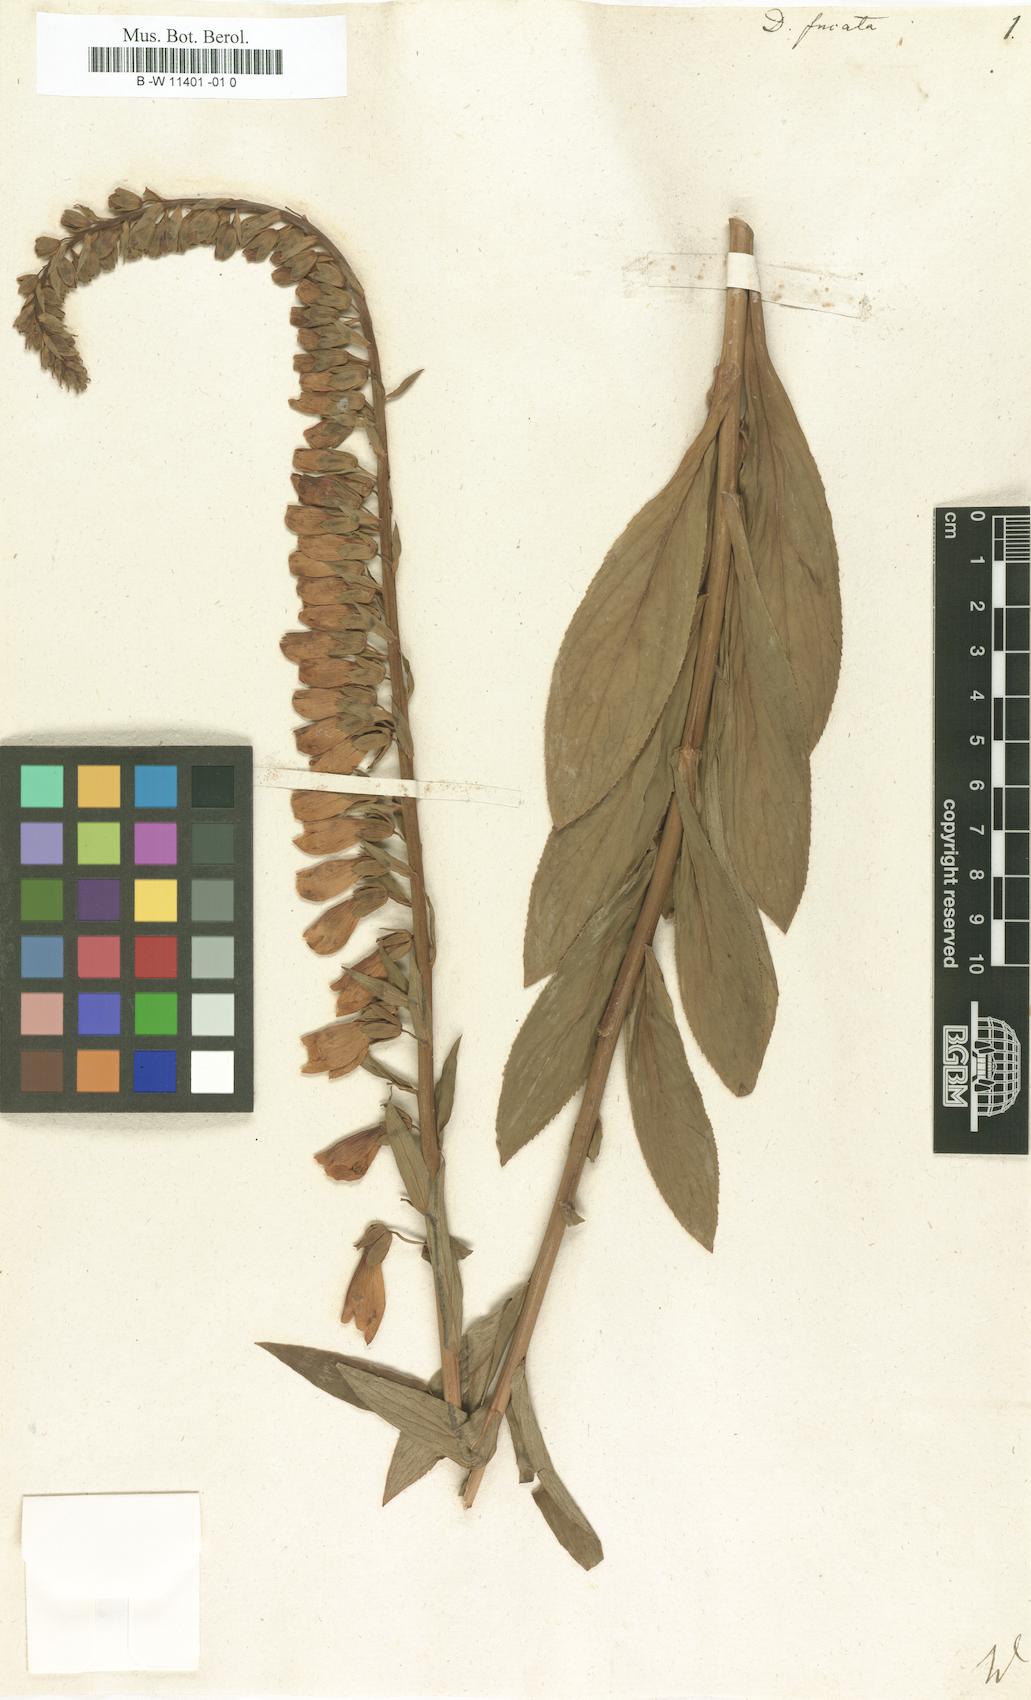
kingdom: Plantae
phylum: Tracheophyta
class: Magnoliopsida
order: Lamiales
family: Plantaginaceae
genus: Digitalis
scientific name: Digitalis fucata
